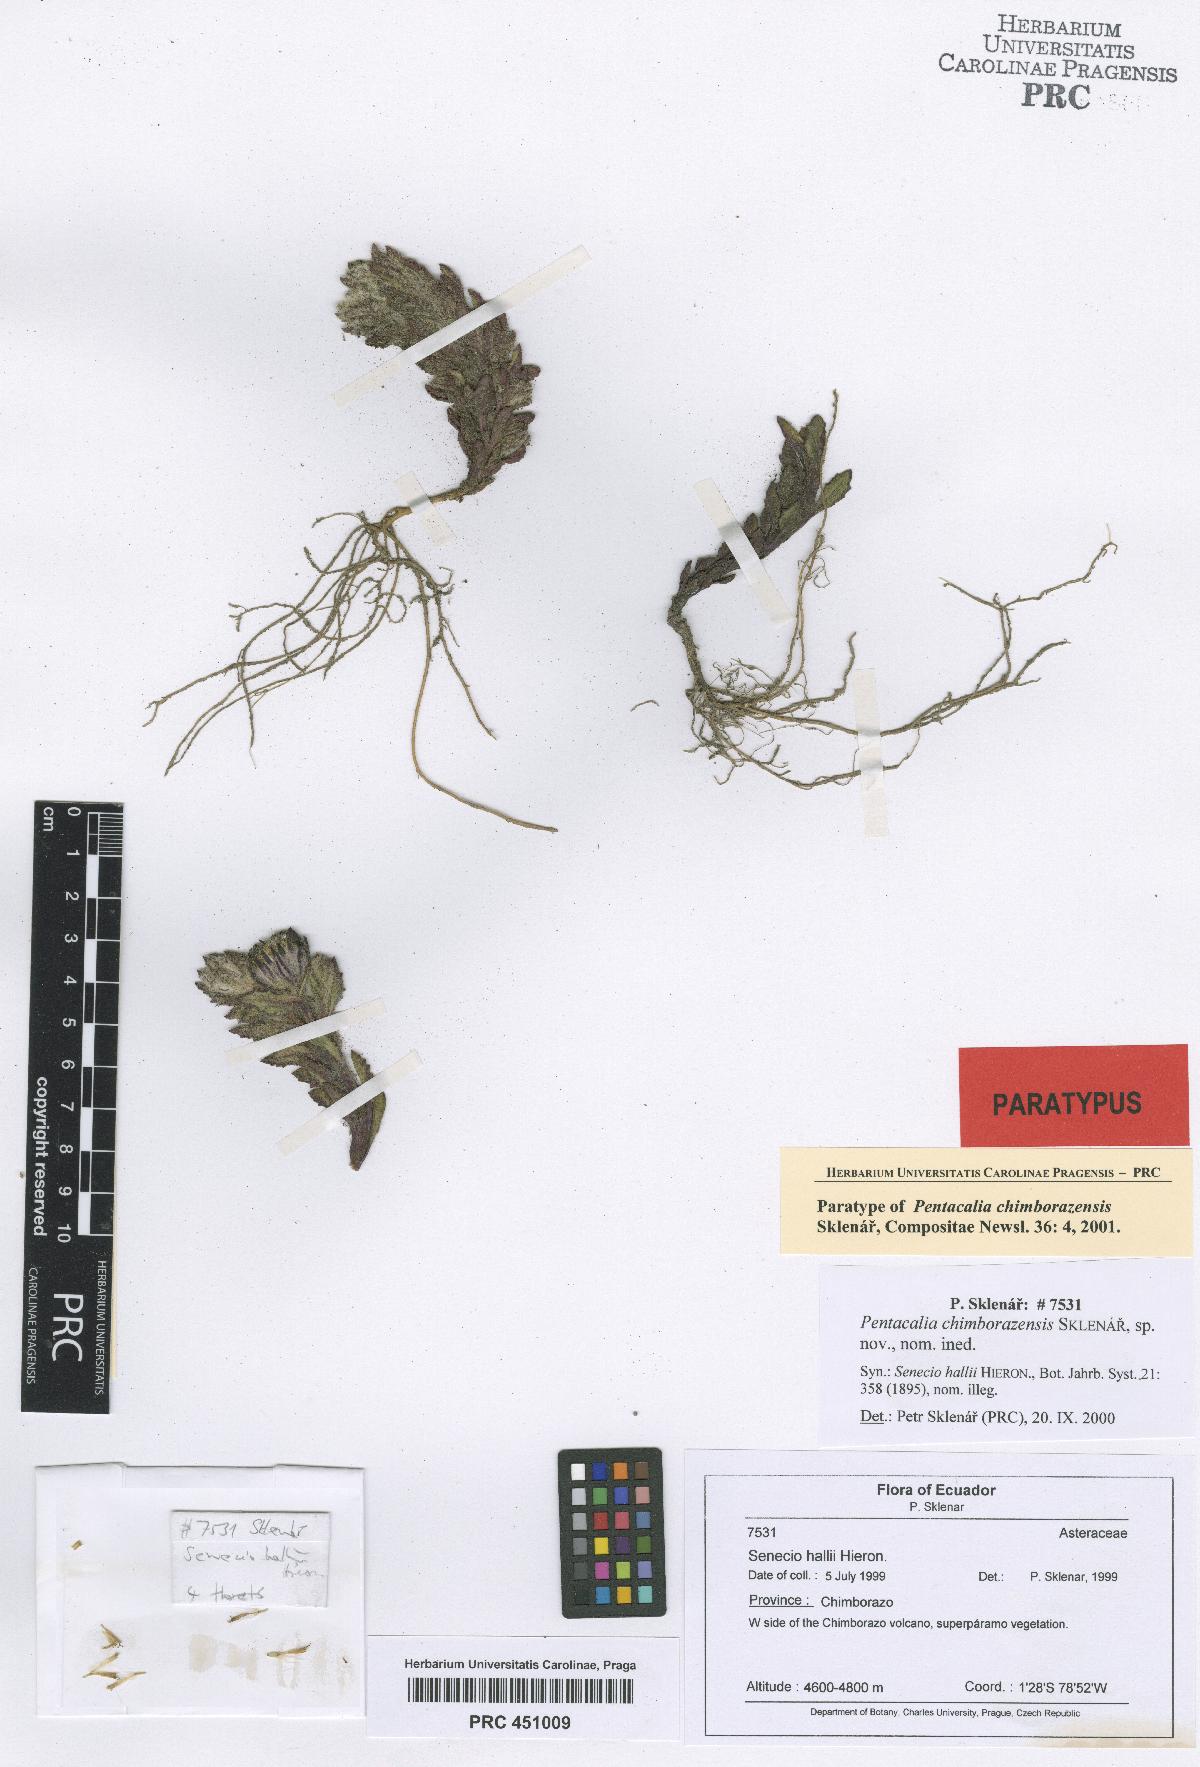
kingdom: Plantae
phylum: Tracheophyta
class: Magnoliopsida
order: Asterales
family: Asteraceae
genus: Monticalia
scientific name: Monticalia chimborazensis
